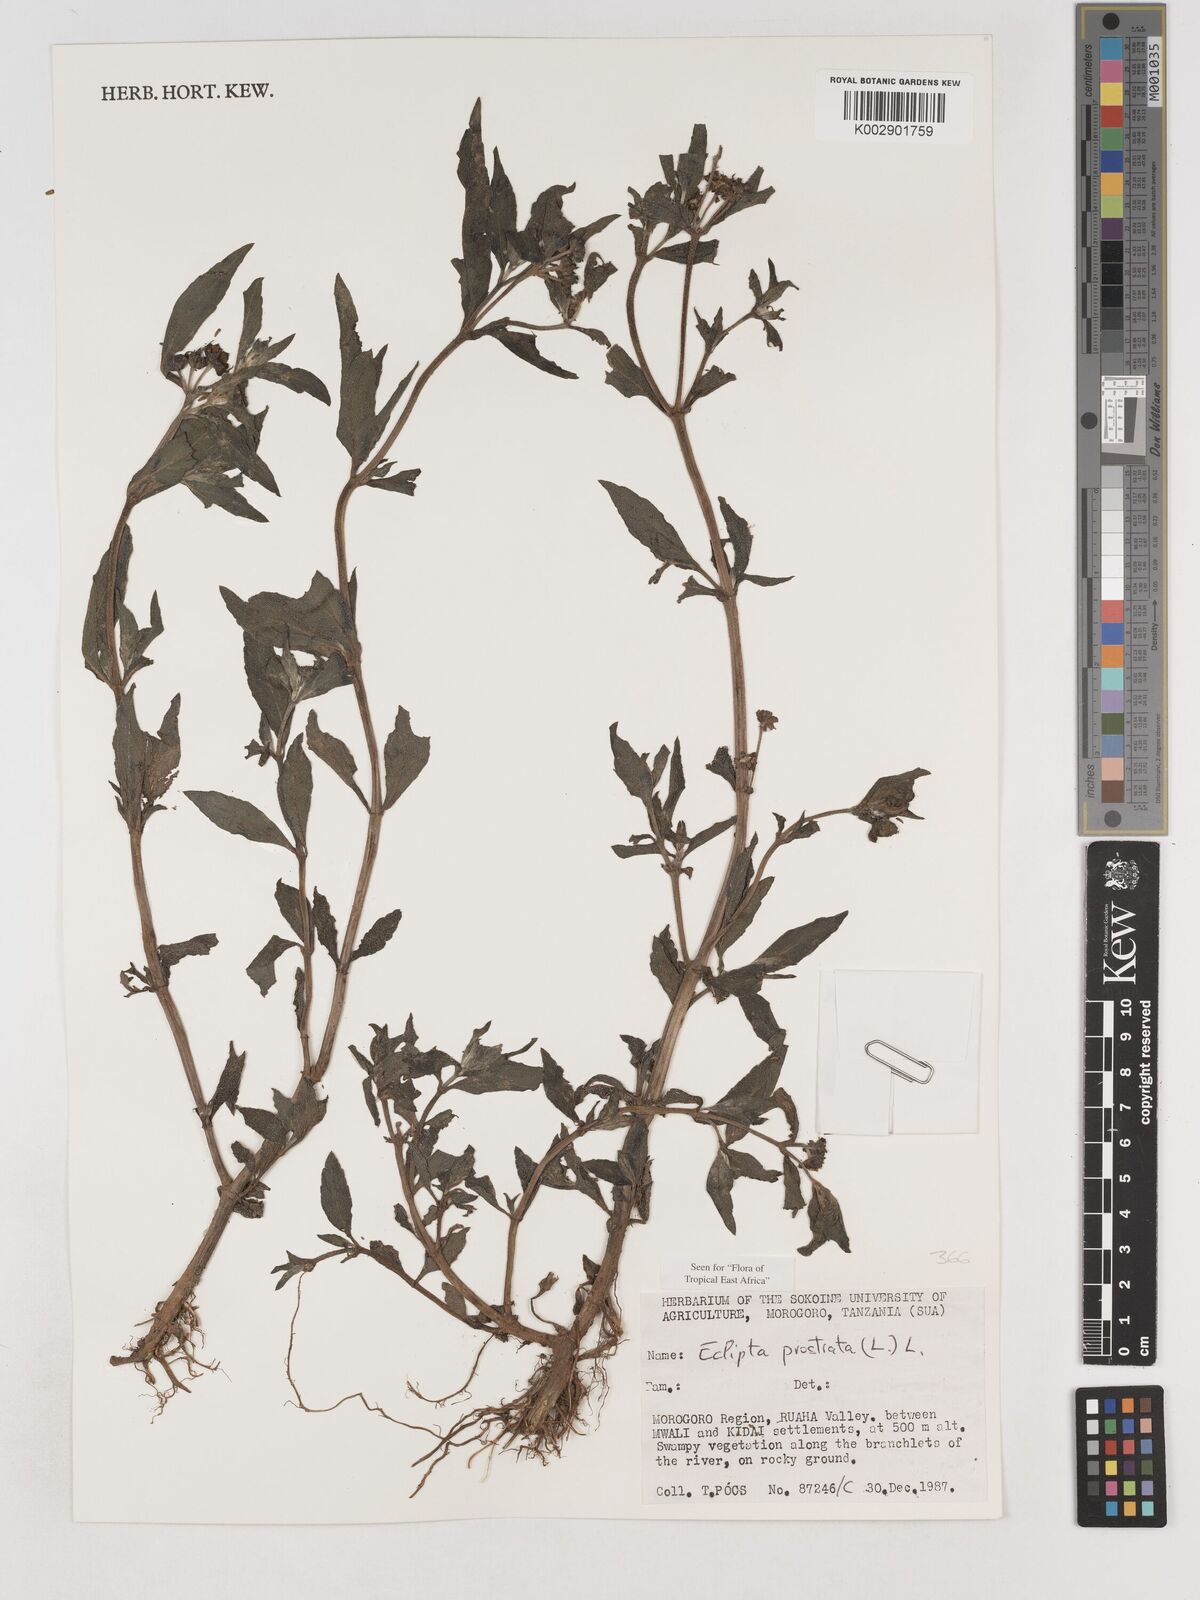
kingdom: Plantae
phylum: Tracheophyta
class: Magnoliopsida
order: Asterales
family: Asteraceae
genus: Eclipta
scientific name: Eclipta alba
